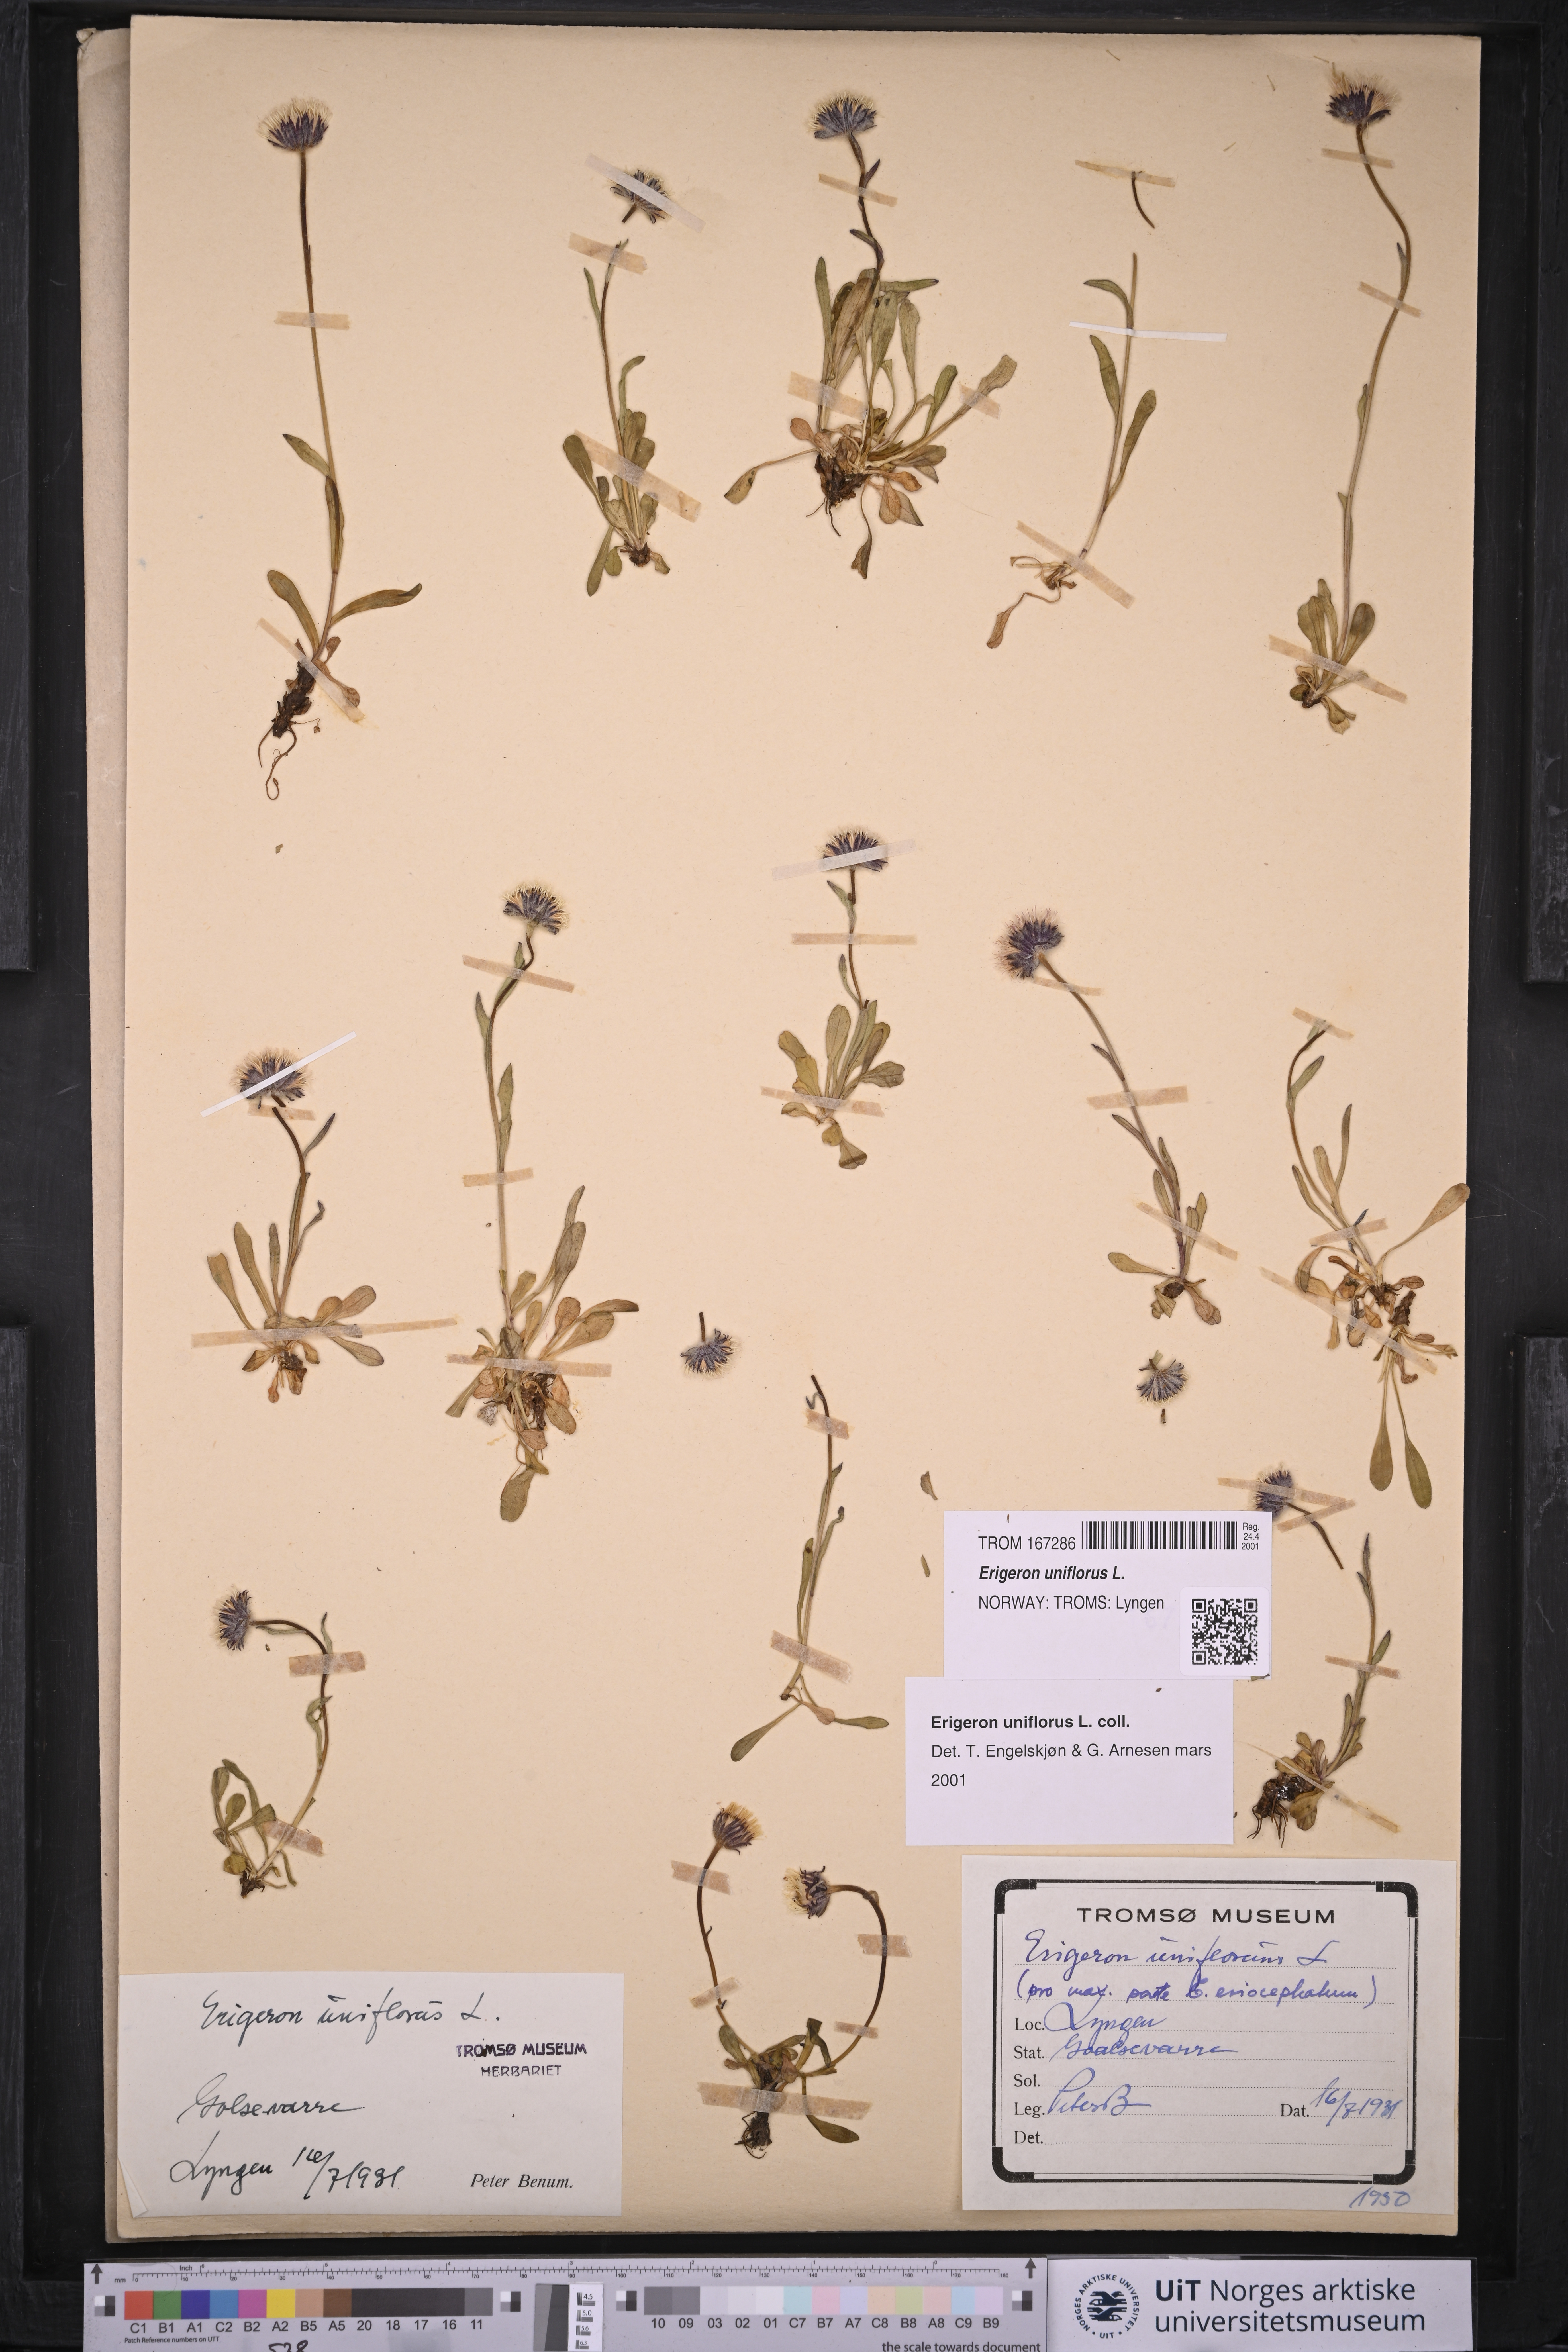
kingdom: Plantae
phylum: Tracheophyta
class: Magnoliopsida
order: Asterales
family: Asteraceae
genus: Erigeron
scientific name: Erigeron uniflorus
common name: Northern daisy
